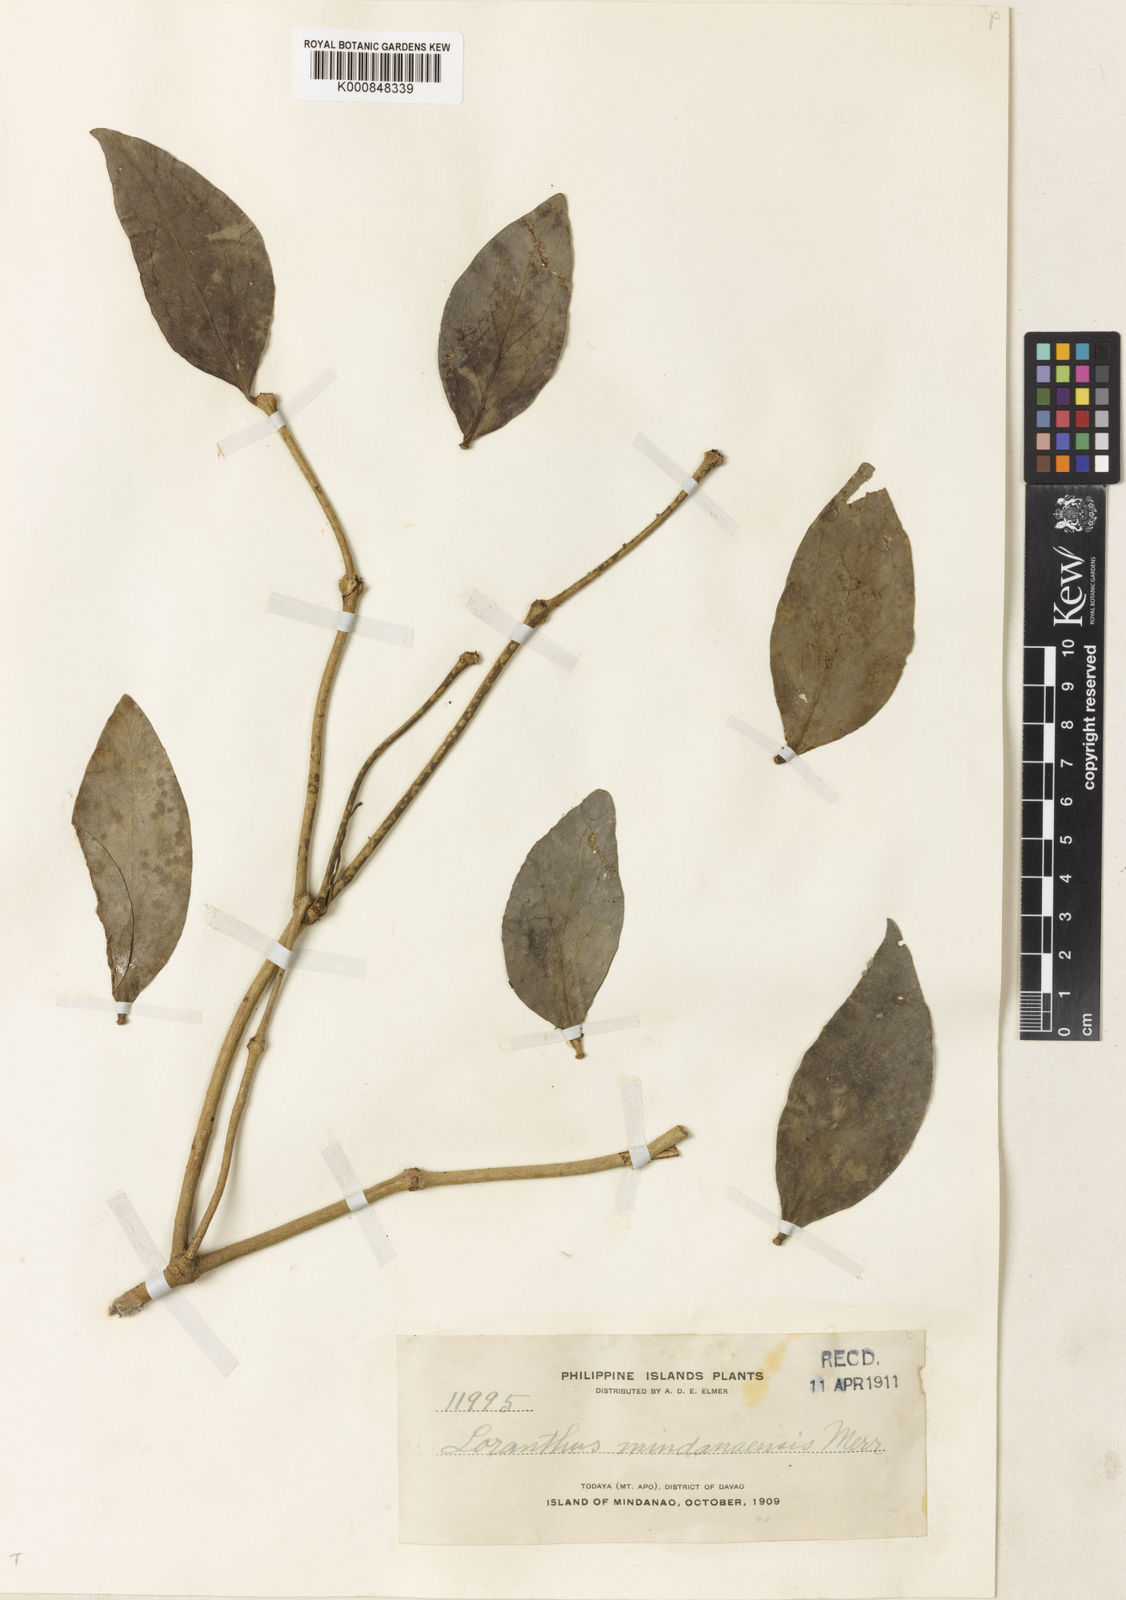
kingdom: Plantae
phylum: Tracheophyta
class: Magnoliopsida
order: Santalales
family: Loranthaceae
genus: Amylotheca
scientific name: Amylotheca
